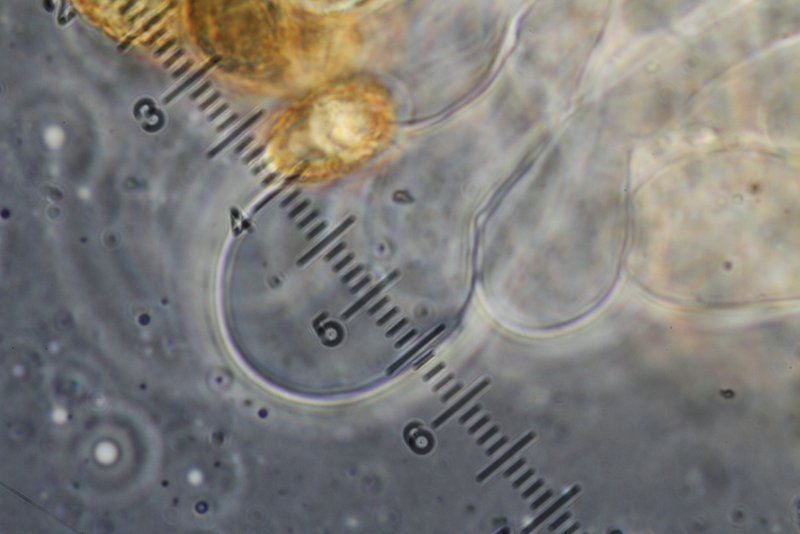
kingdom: Fungi
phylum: Basidiomycota
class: Agaricomycetes
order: Agaricales
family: Hymenogastraceae
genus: Naucoria
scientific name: Naucoria salicis
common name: pile-knaphat
